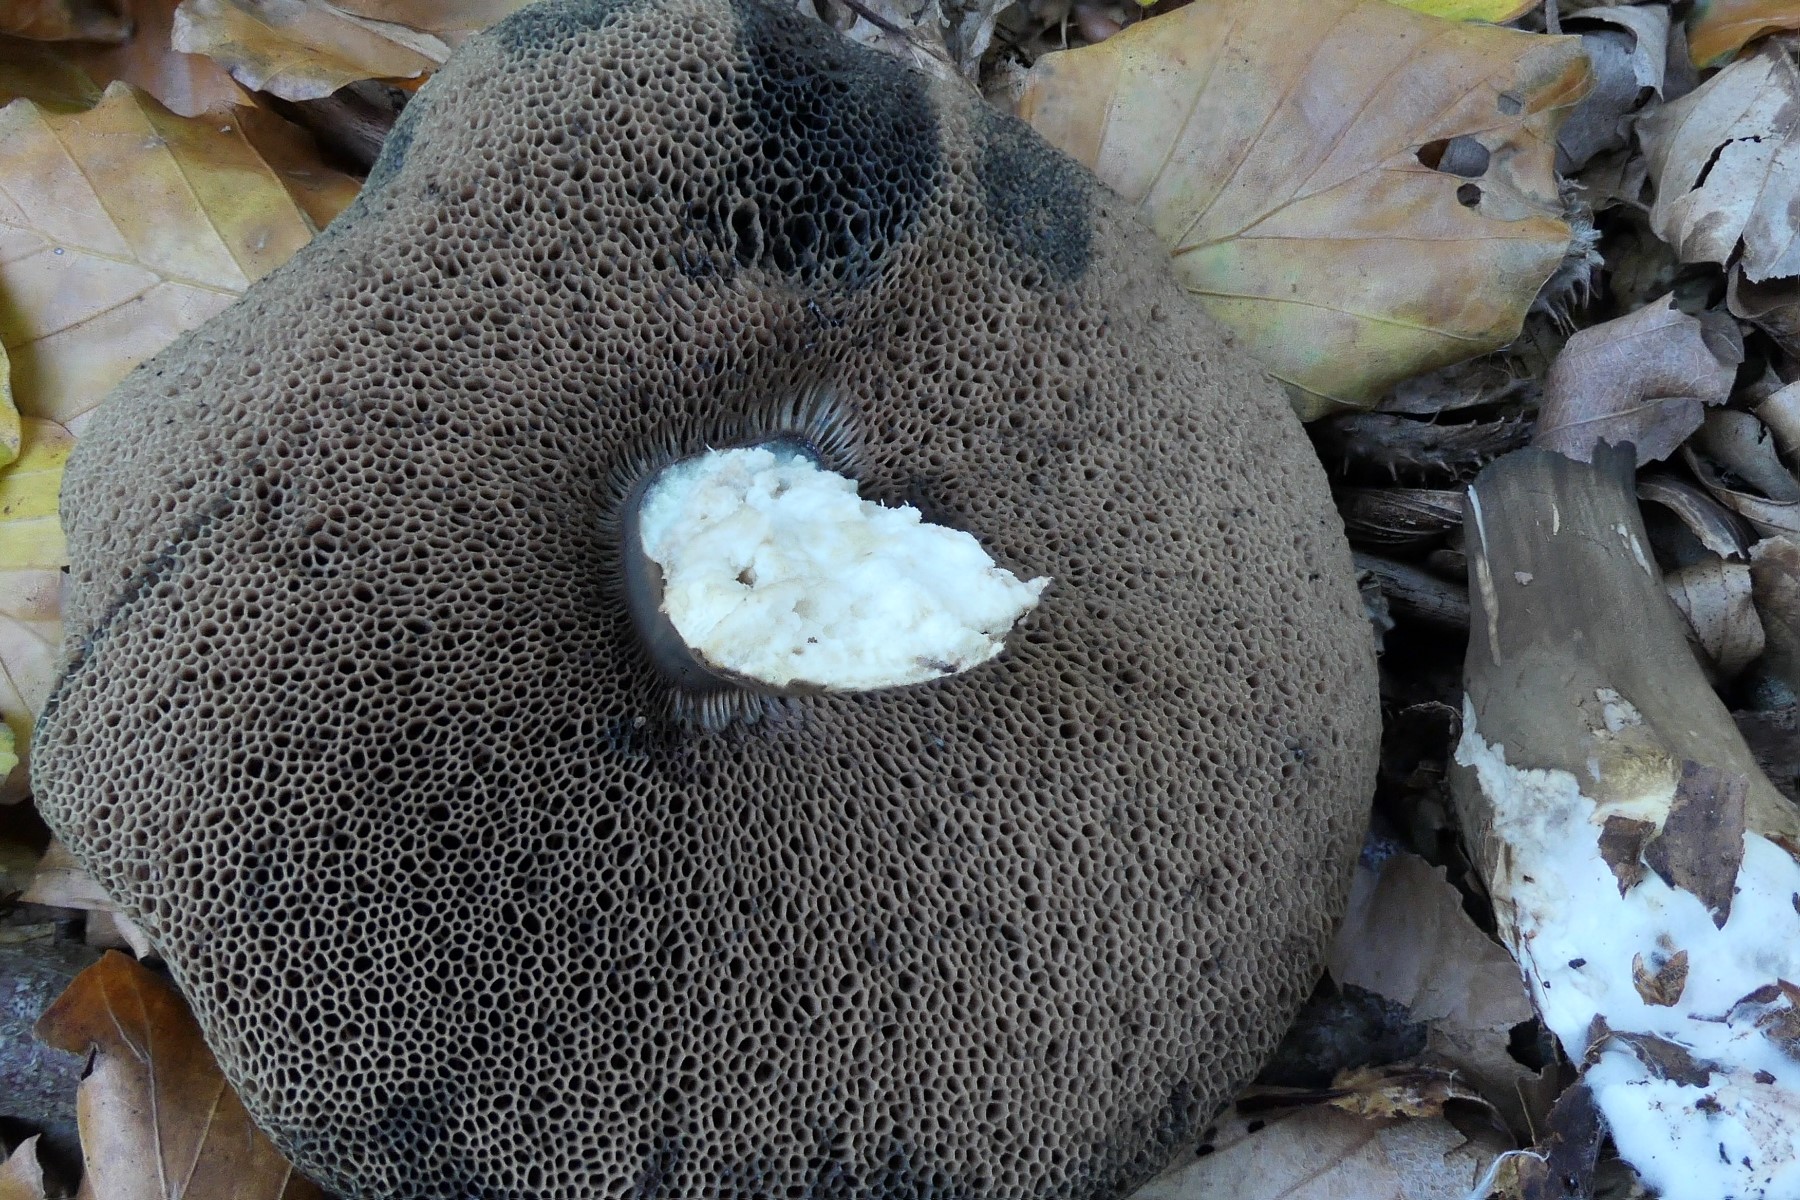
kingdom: Fungi
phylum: Basidiomycota
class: Agaricomycetes
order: Boletales
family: Boletaceae
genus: Porphyrellus
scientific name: Porphyrellus porphyrosporus
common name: sodrørhat
